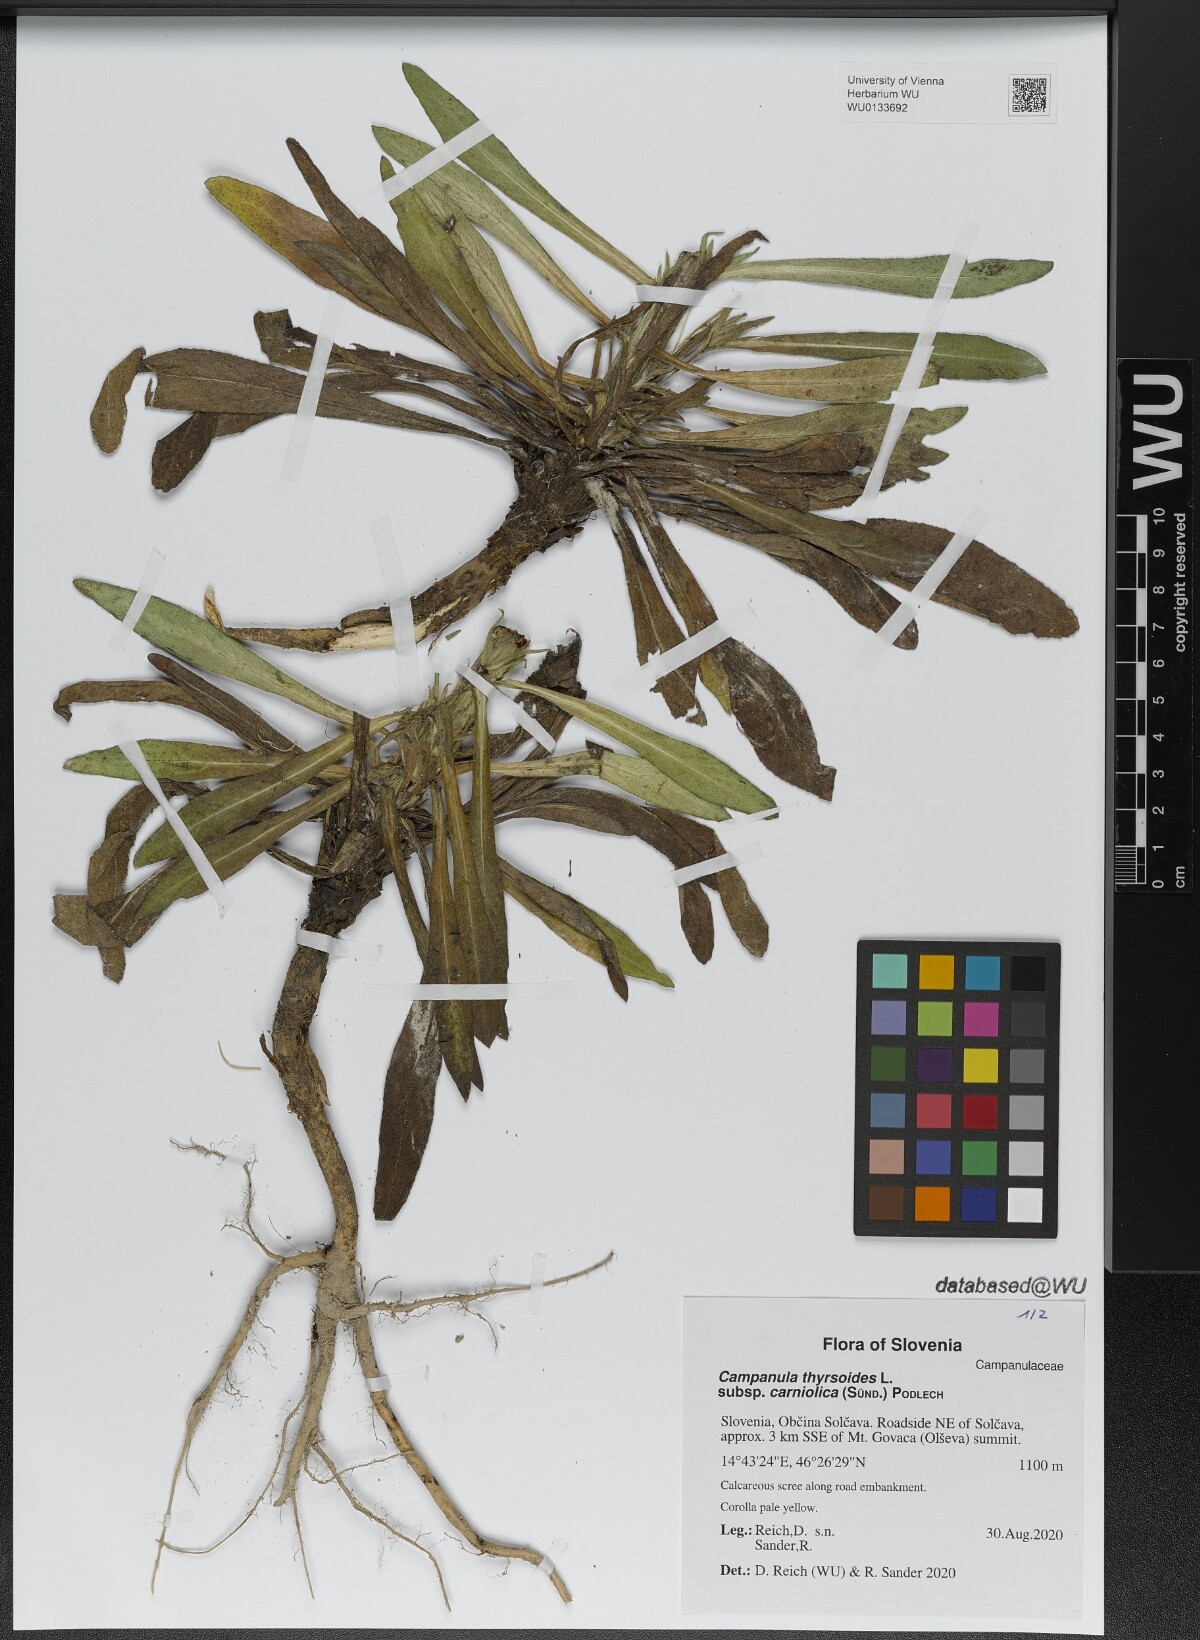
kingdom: Plantae
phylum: Tracheophyta
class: Magnoliopsida
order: Asterales
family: Campanulaceae
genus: Campanula
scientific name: Campanula thyrsoides
